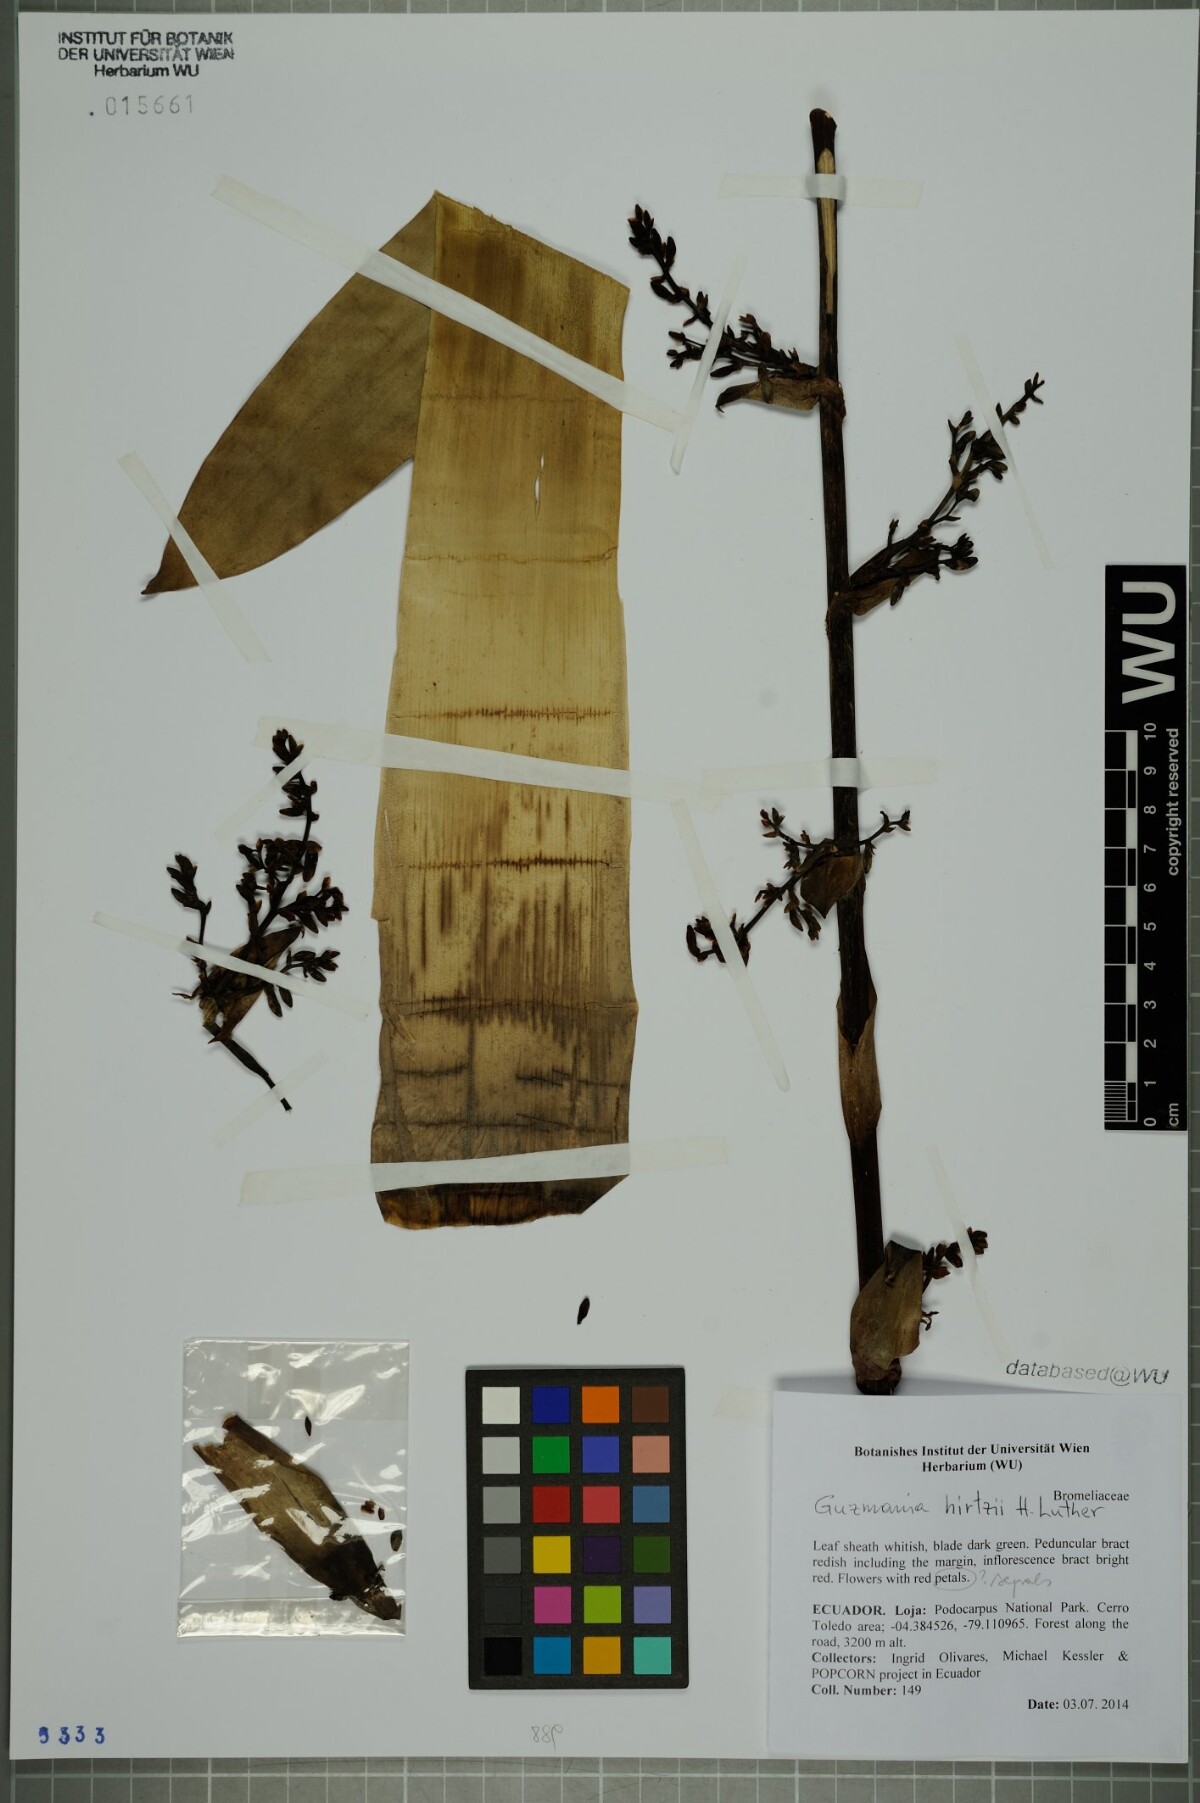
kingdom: Plantae
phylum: Tracheophyta
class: Liliopsida
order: Poales
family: Bromeliaceae
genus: Guzmania
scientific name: Guzmania hirtzii
